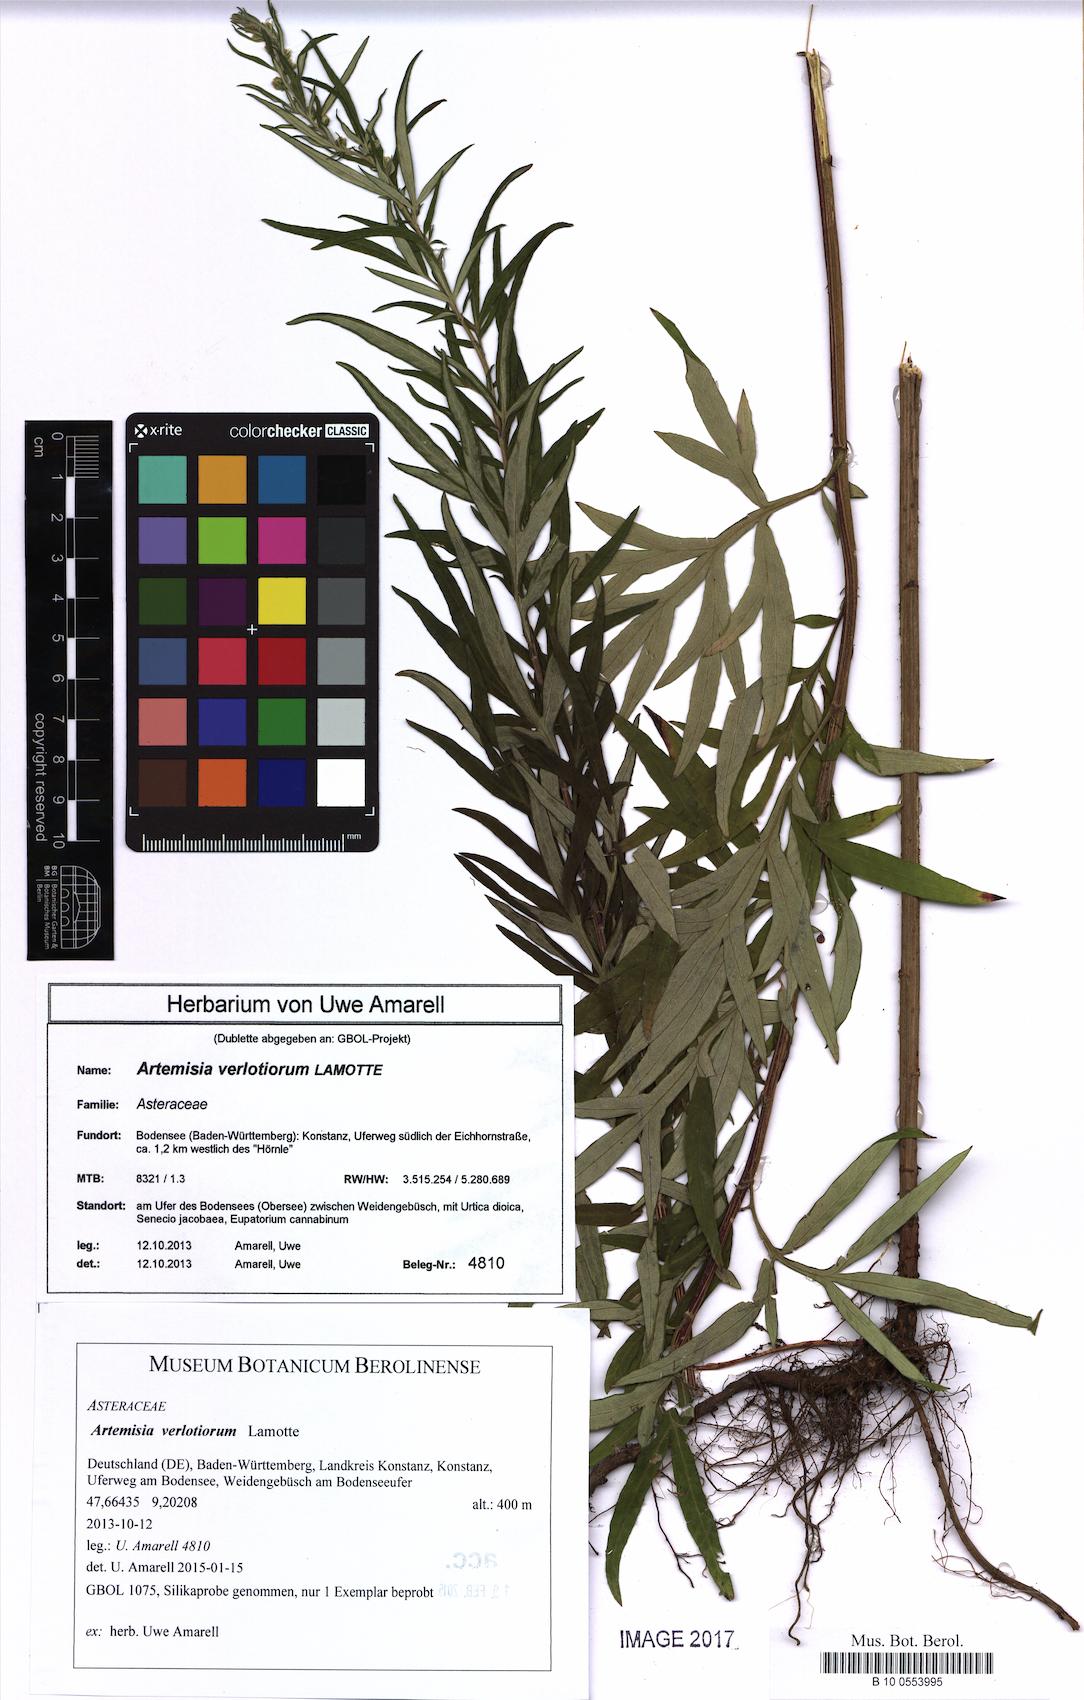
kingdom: Plantae
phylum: Tracheophyta
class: Magnoliopsida
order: Asterales
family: Asteraceae
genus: Artemisia
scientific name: Artemisia verlotiorum
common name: Chinese mugwort
